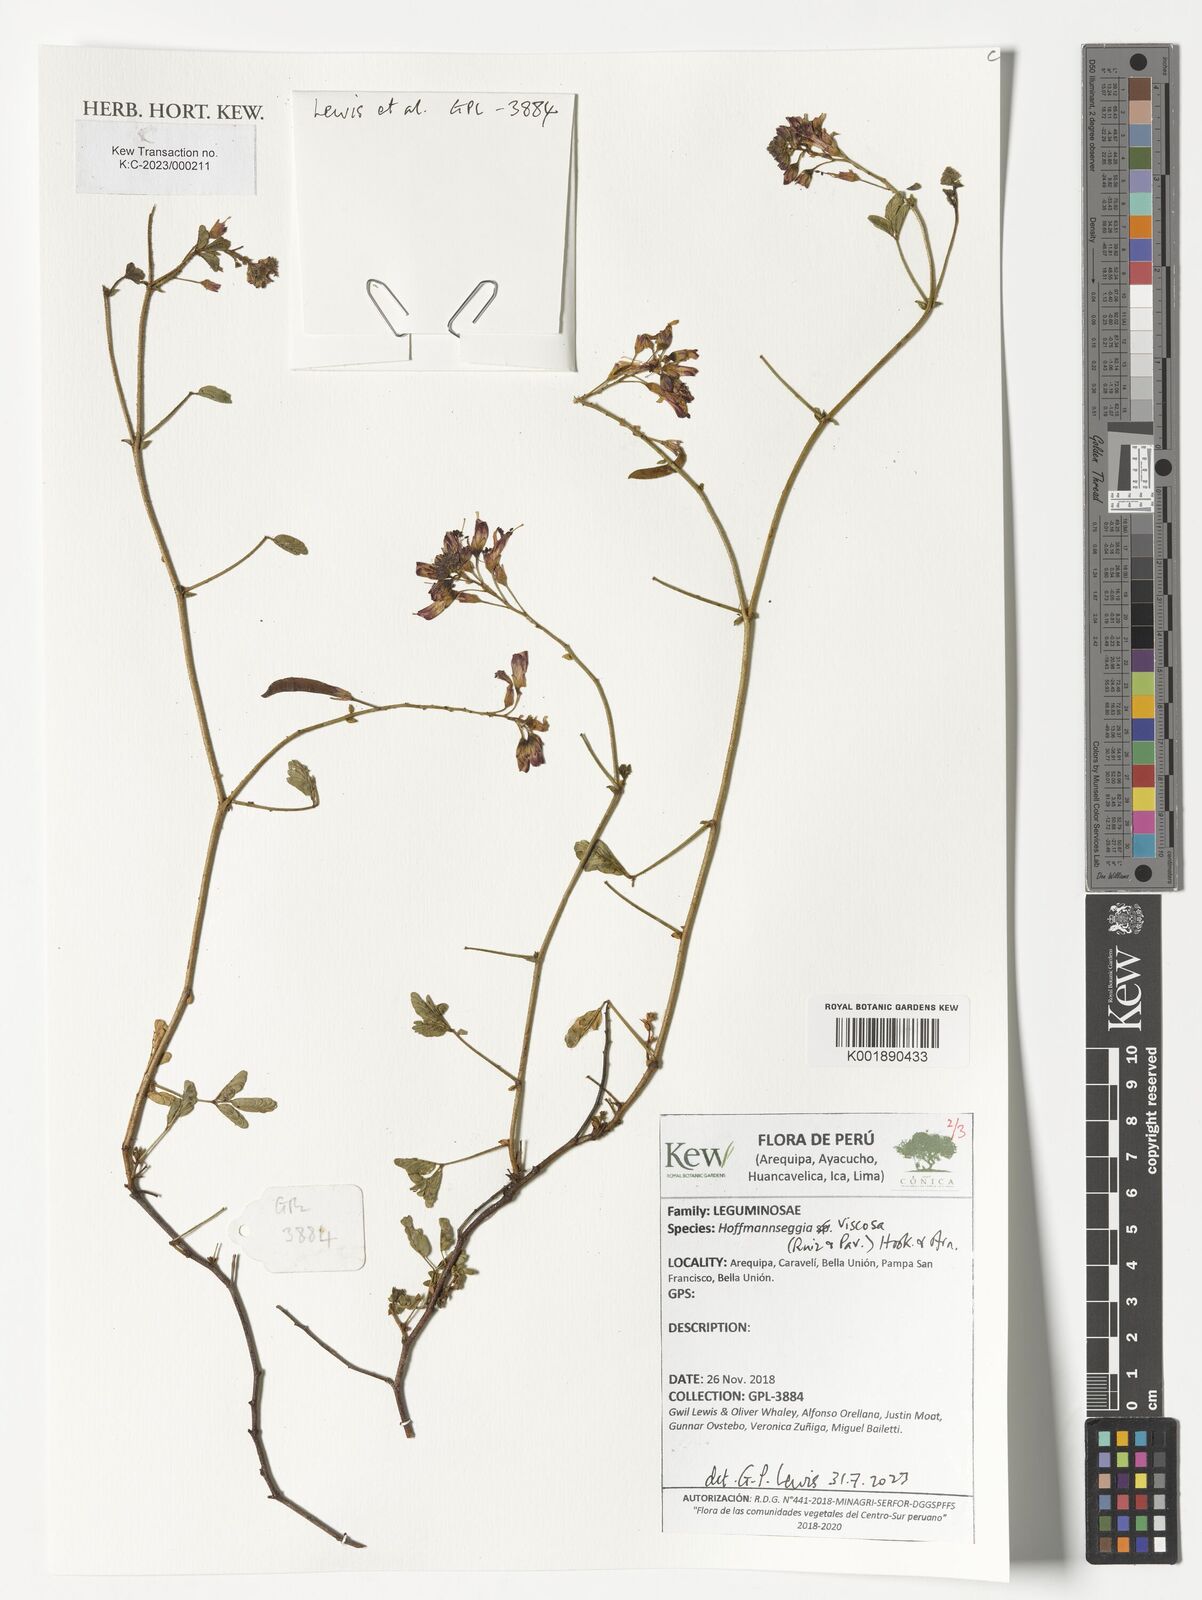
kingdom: Plantae
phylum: Tracheophyta
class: Magnoliopsida
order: Fabales
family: Fabaceae
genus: Hoffmannseggia
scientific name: Hoffmannseggia viscosa
